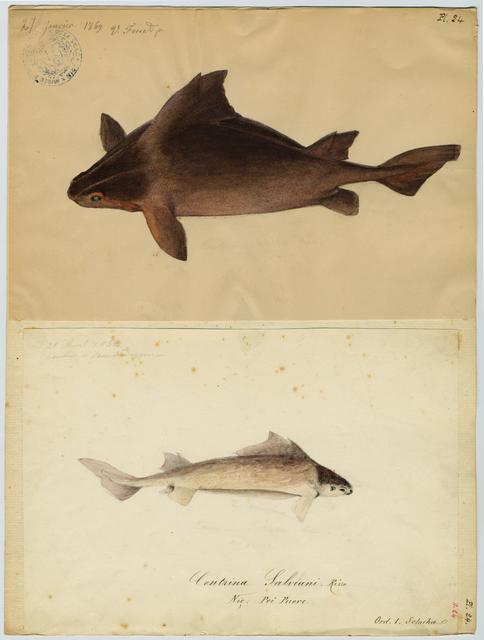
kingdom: Animalia
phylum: Chordata
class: Elasmobranchii
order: Squaliformes
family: Oxynotidae
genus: Oxynotus
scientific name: Oxynotus centrina
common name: Angular roughshark
